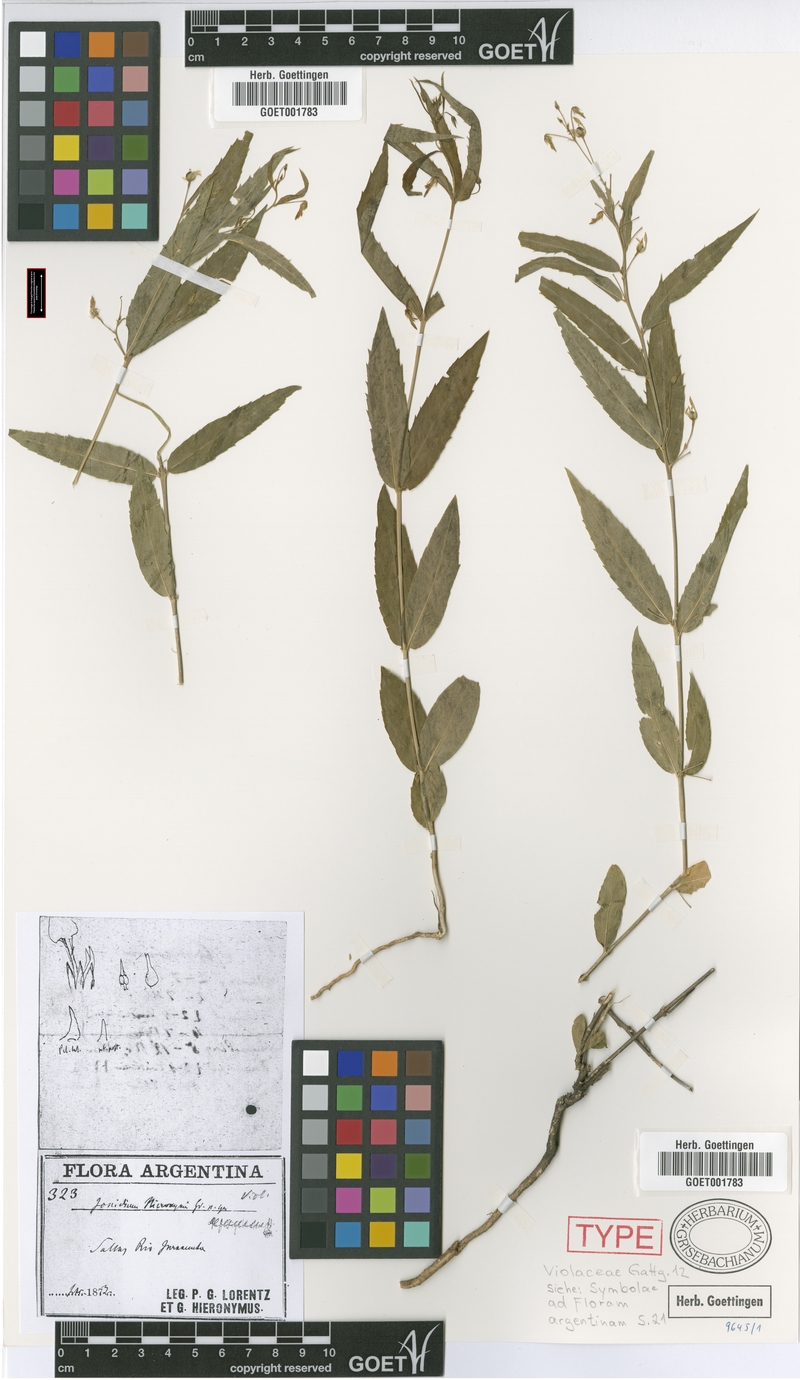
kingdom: Plantae
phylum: Tracheophyta
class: Magnoliopsida
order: Malpighiales
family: Violaceae
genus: Pombalia
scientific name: Pombalia oppositifolia
